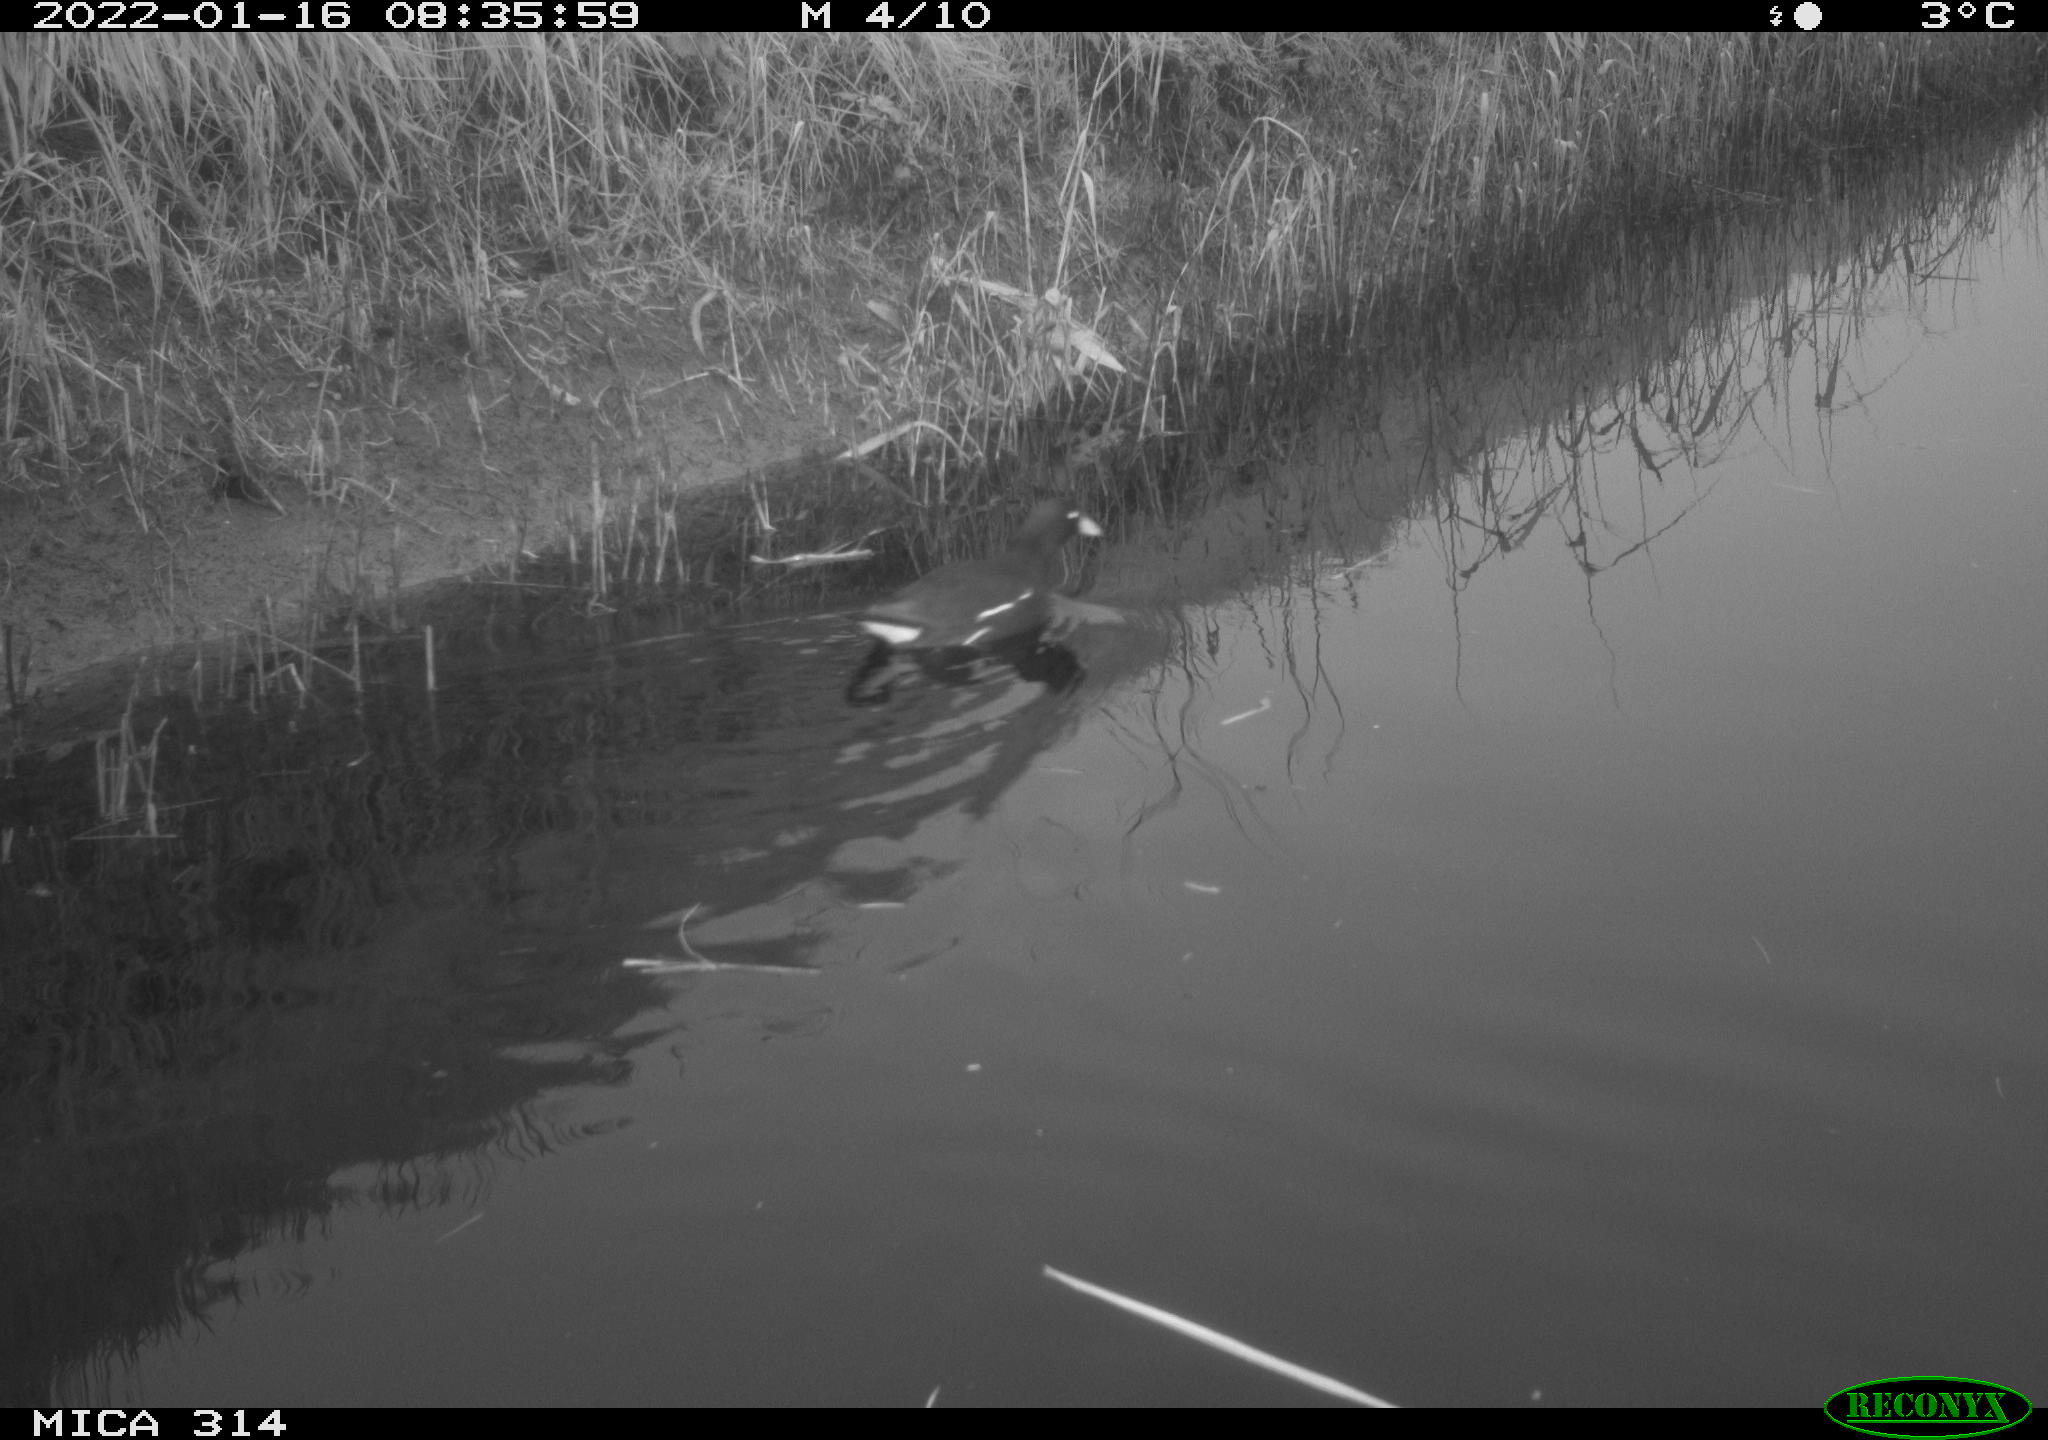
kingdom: Animalia
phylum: Chordata
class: Aves
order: Gruiformes
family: Rallidae
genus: Gallinula
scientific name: Gallinula chloropus
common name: Common moorhen
